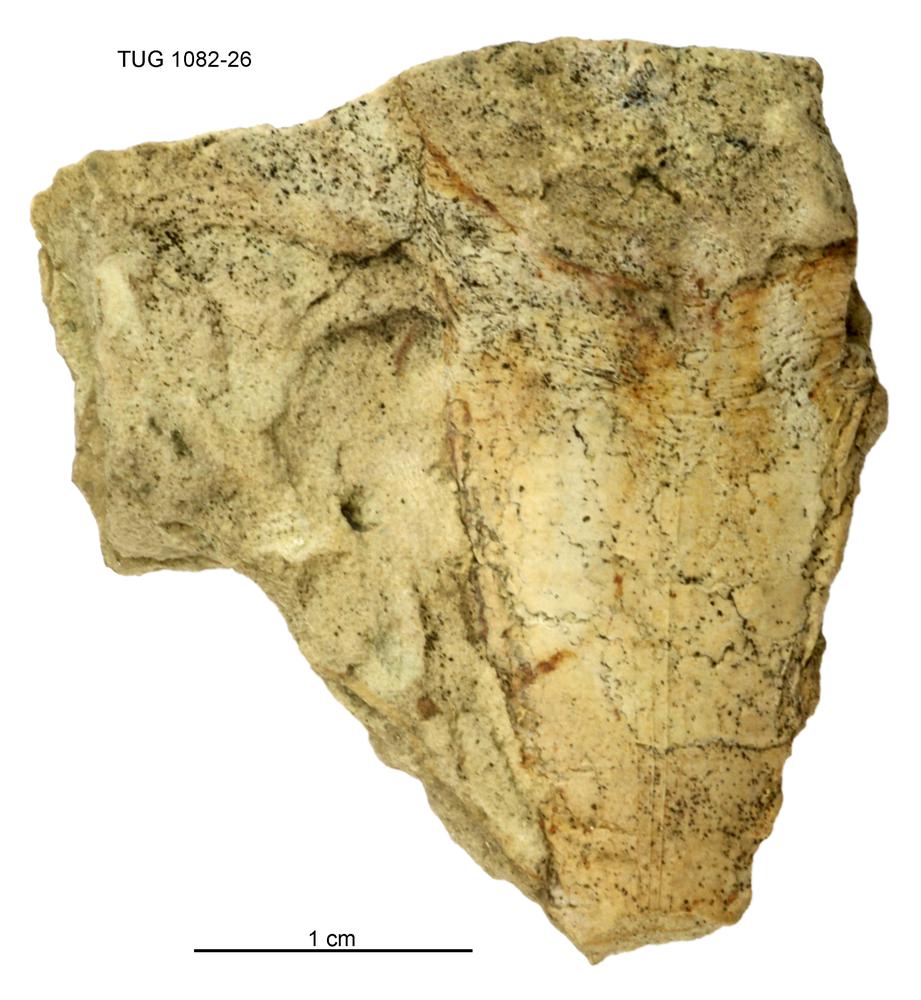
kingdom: Animalia
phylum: Cnidaria
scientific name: Cnidaria
